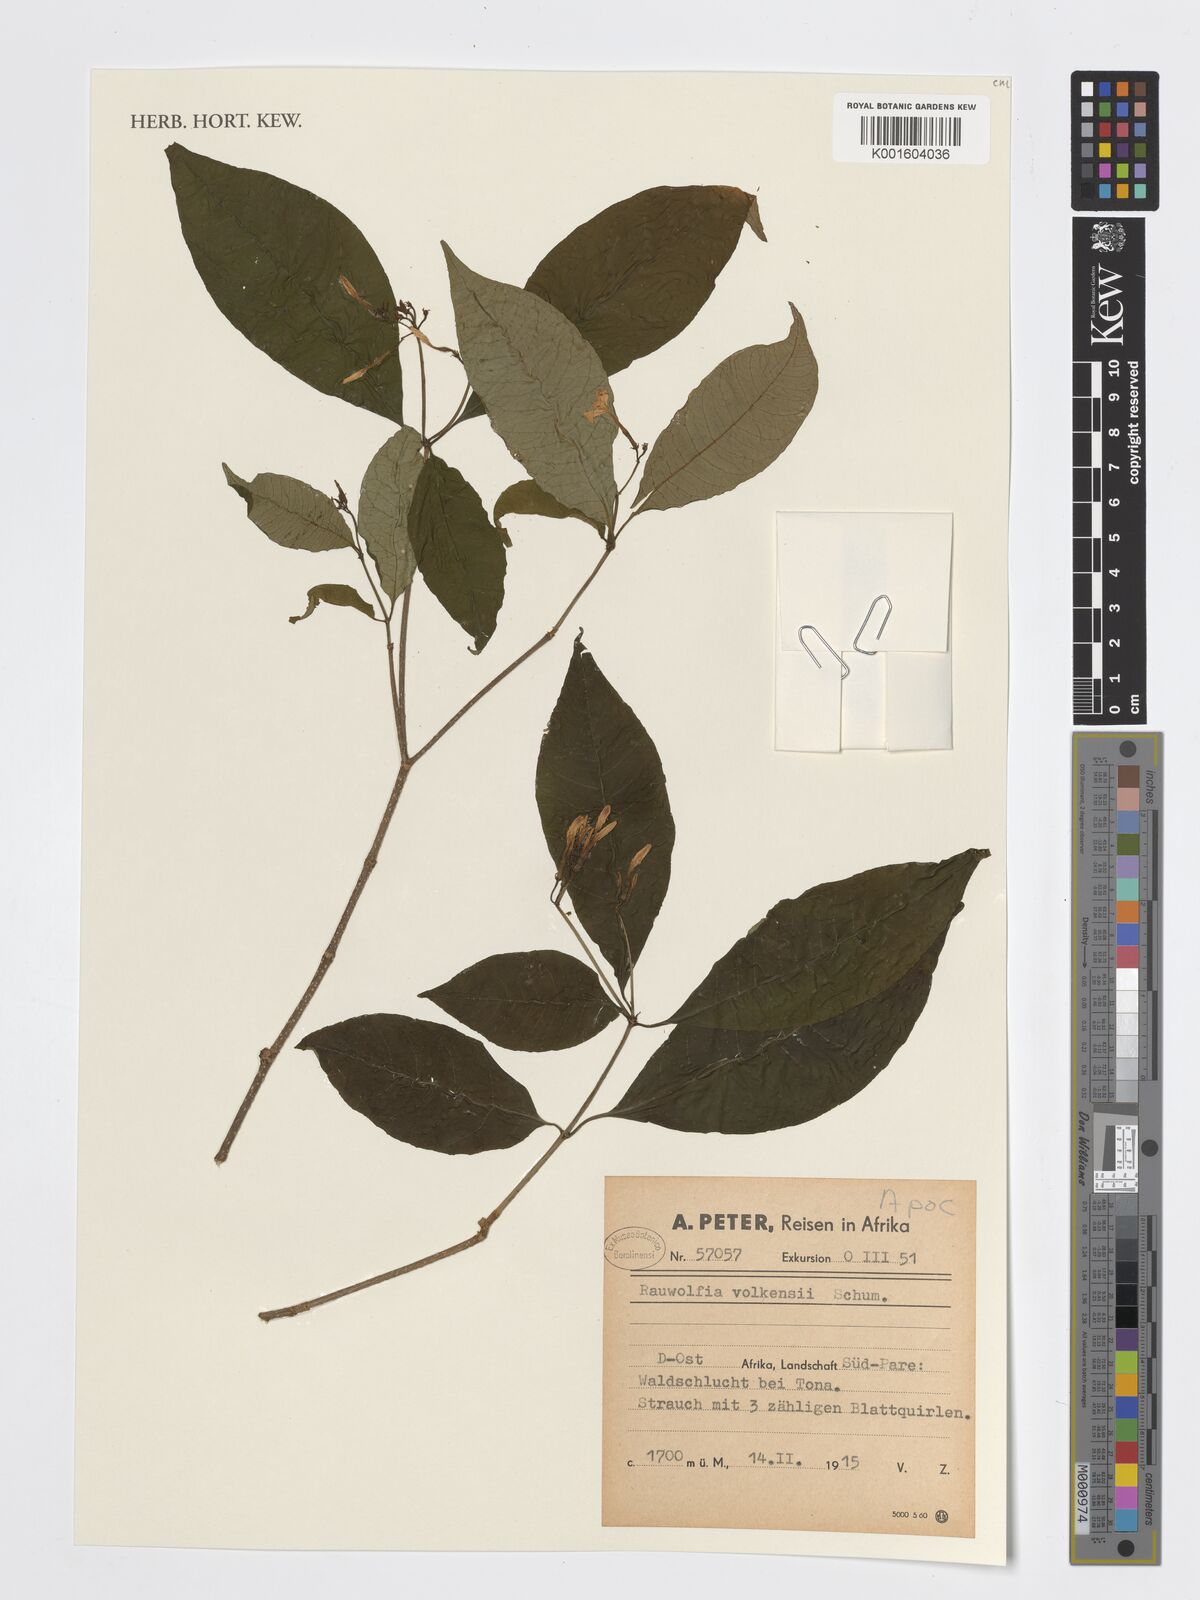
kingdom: Plantae
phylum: Tracheophyta
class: Magnoliopsida
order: Gentianales
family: Apocynaceae
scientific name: Apocynaceae
